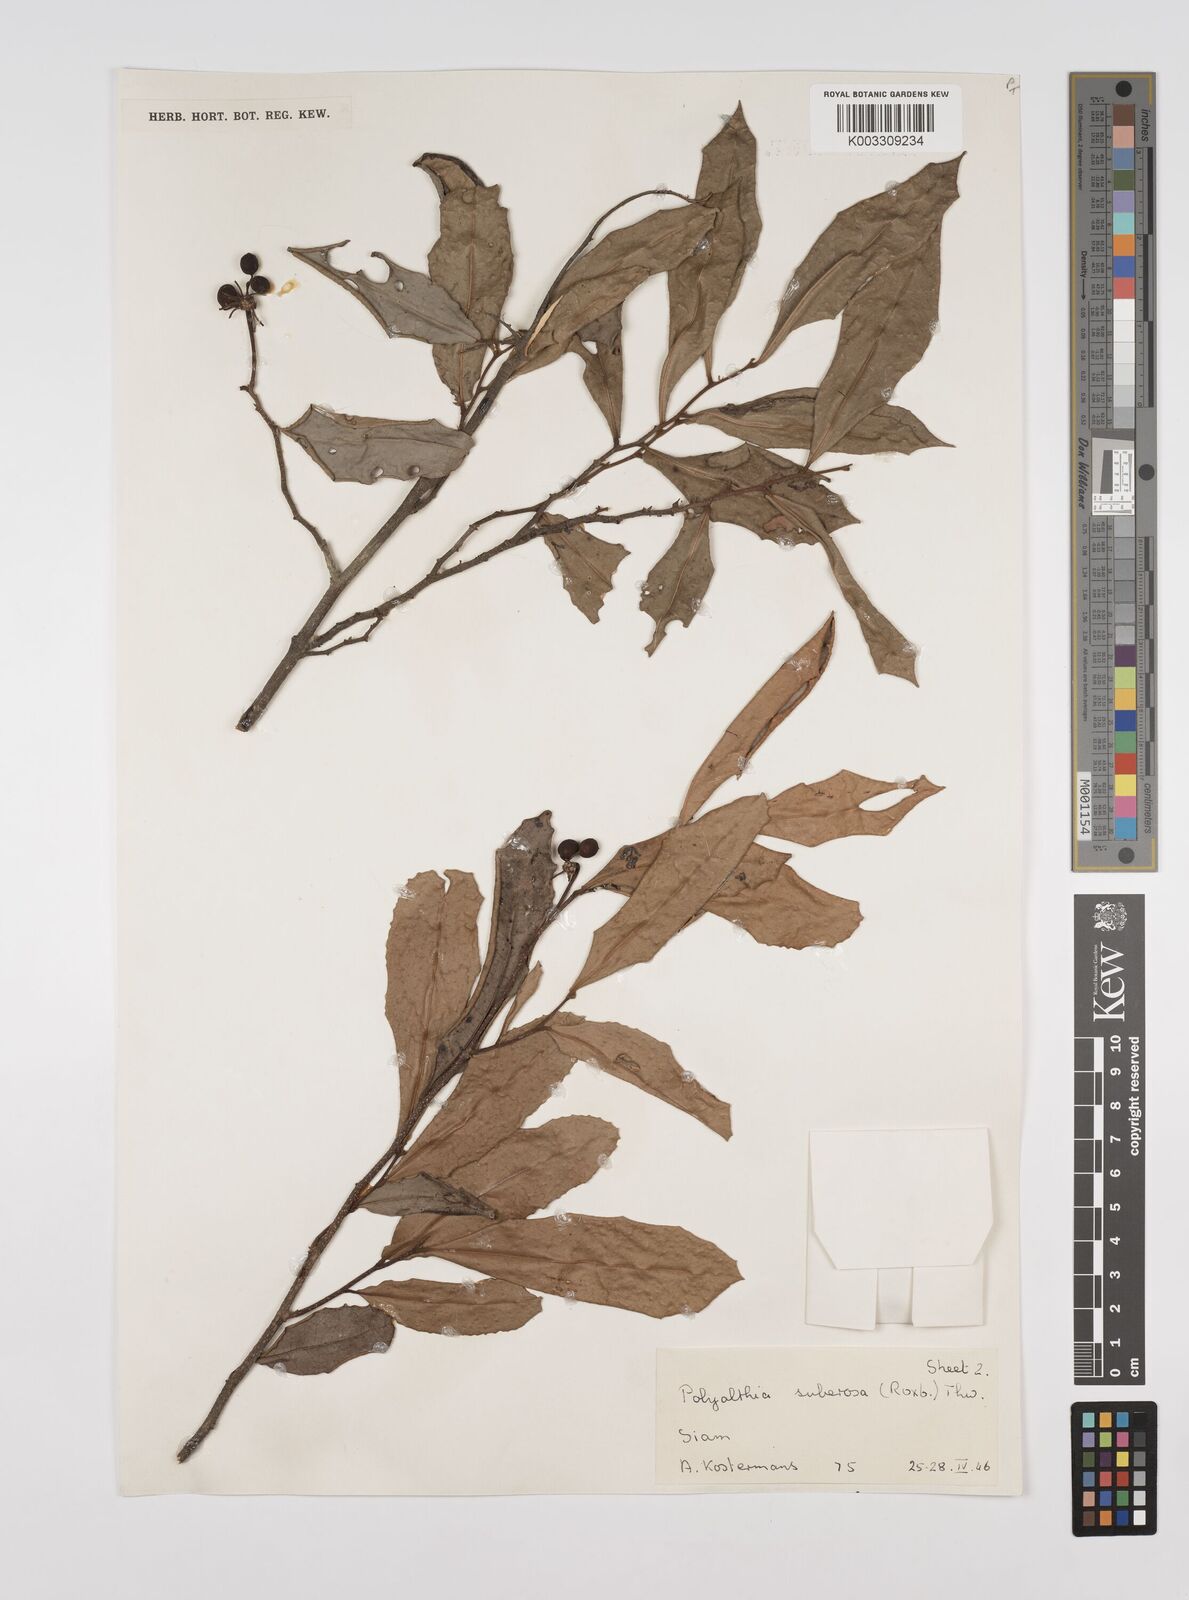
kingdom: Plantae
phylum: Tracheophyta
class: Magnoliopsida
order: Magnoliales
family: Annonaceae
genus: Polyalthia
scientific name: Polyalthia suberosa
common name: Polyalthia plant
